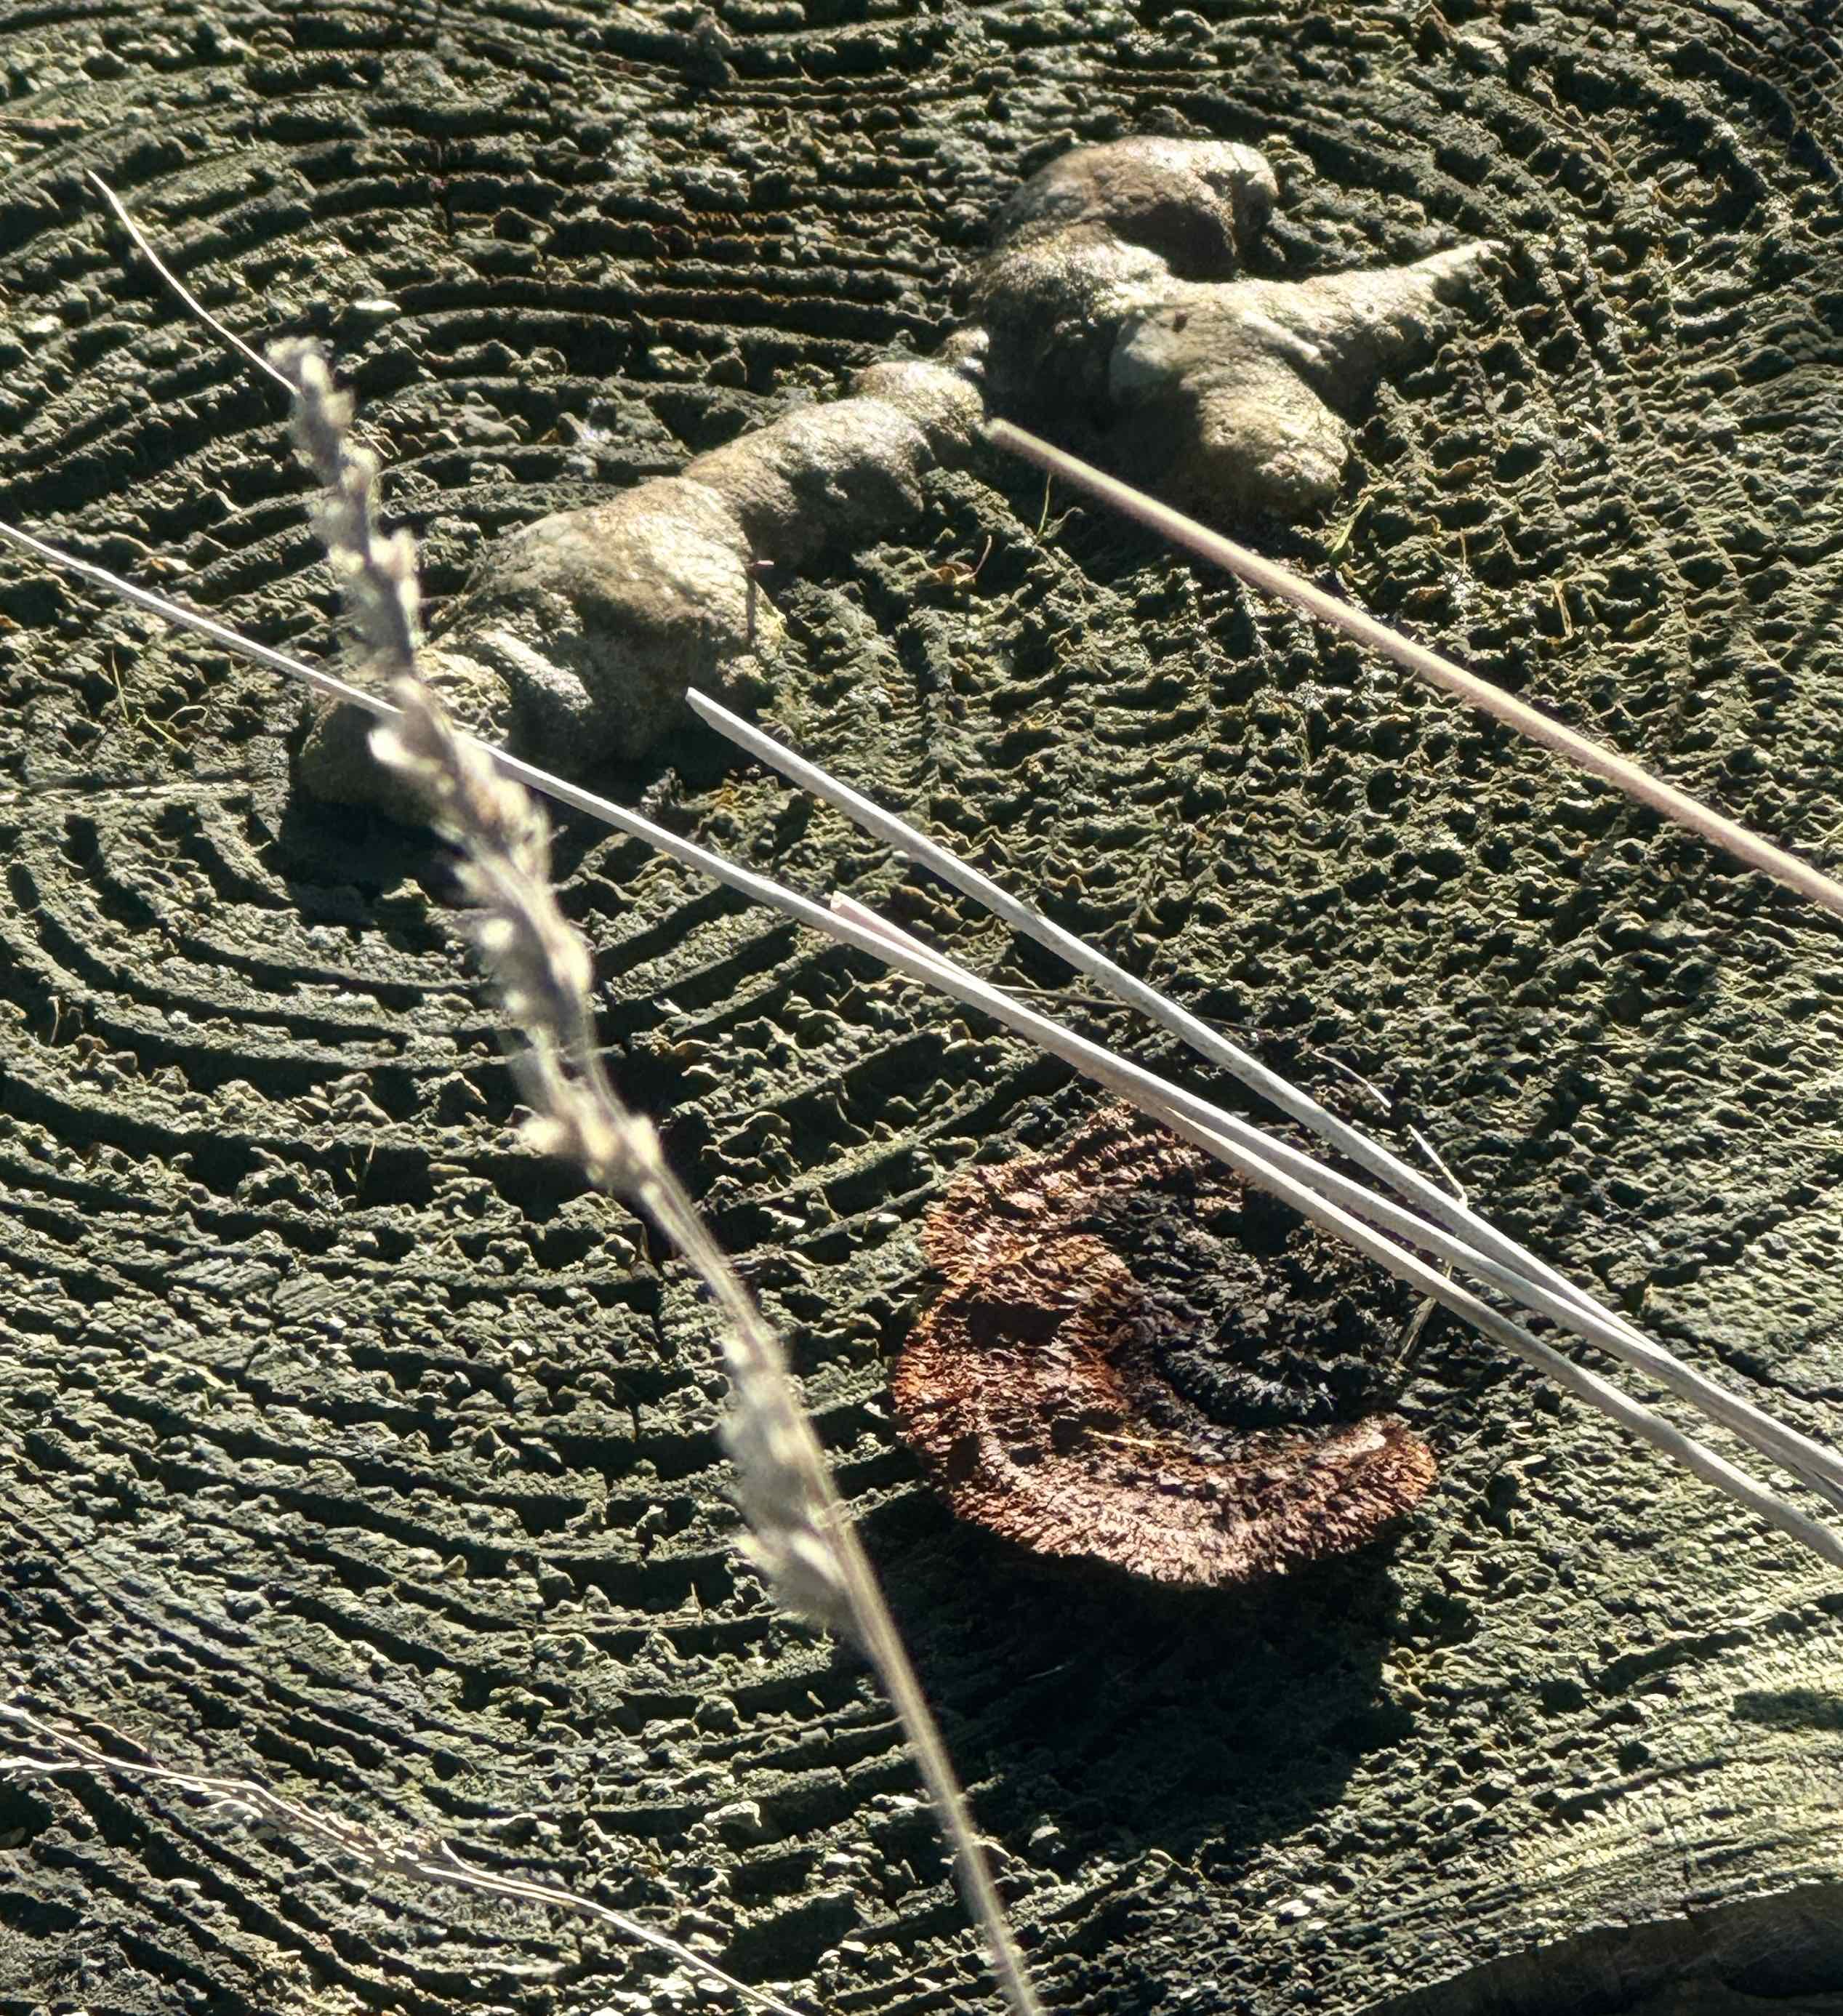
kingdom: Fungi
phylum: Basidiomycota
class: Agaricomycetes
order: Gloeophyllales
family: Gloeophyllaceae
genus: Gloeophyllum
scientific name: Gloeophyllum sepiarium
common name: fyrre-korkhat
